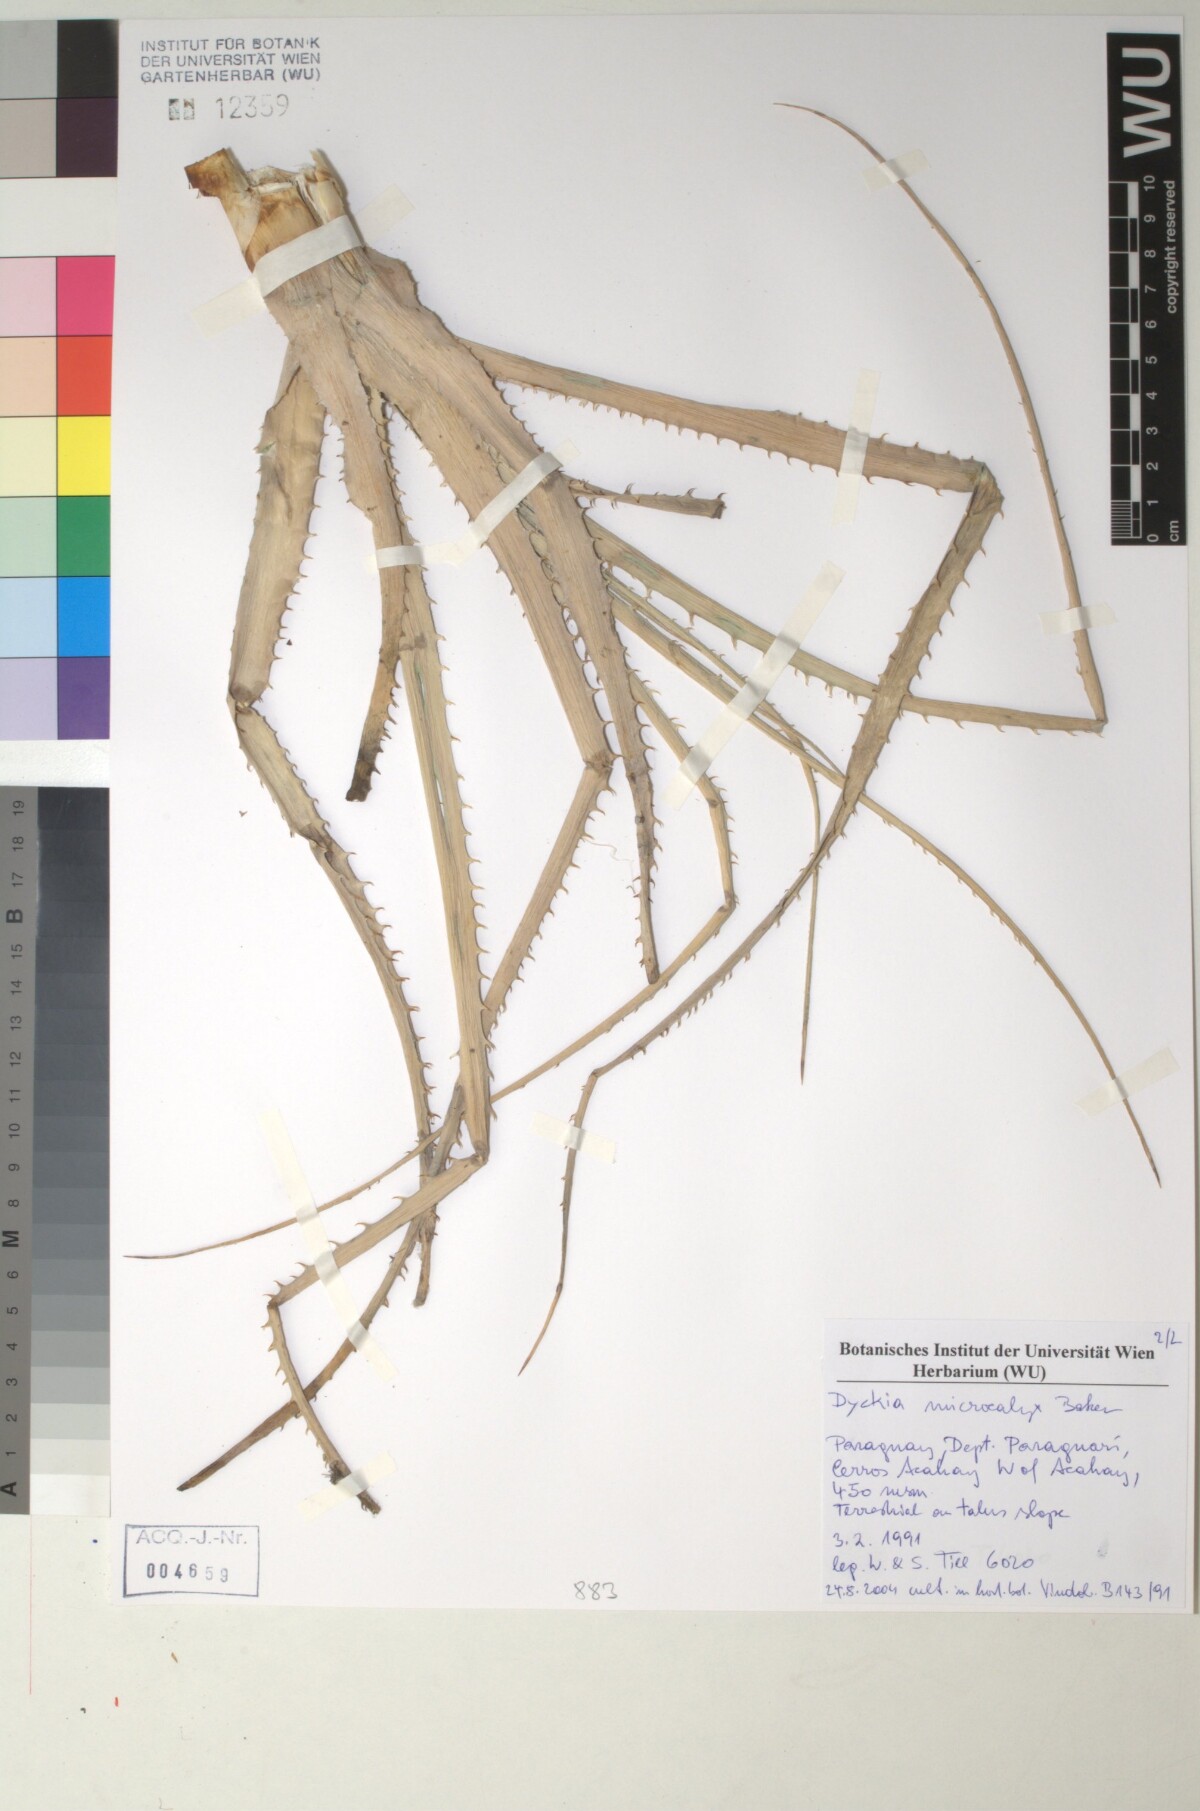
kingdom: Plantae
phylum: Tracheophyta
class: Liliopsida
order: Poales
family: Bromeliaceae
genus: Dyckia
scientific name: Dyckia microcalyx
